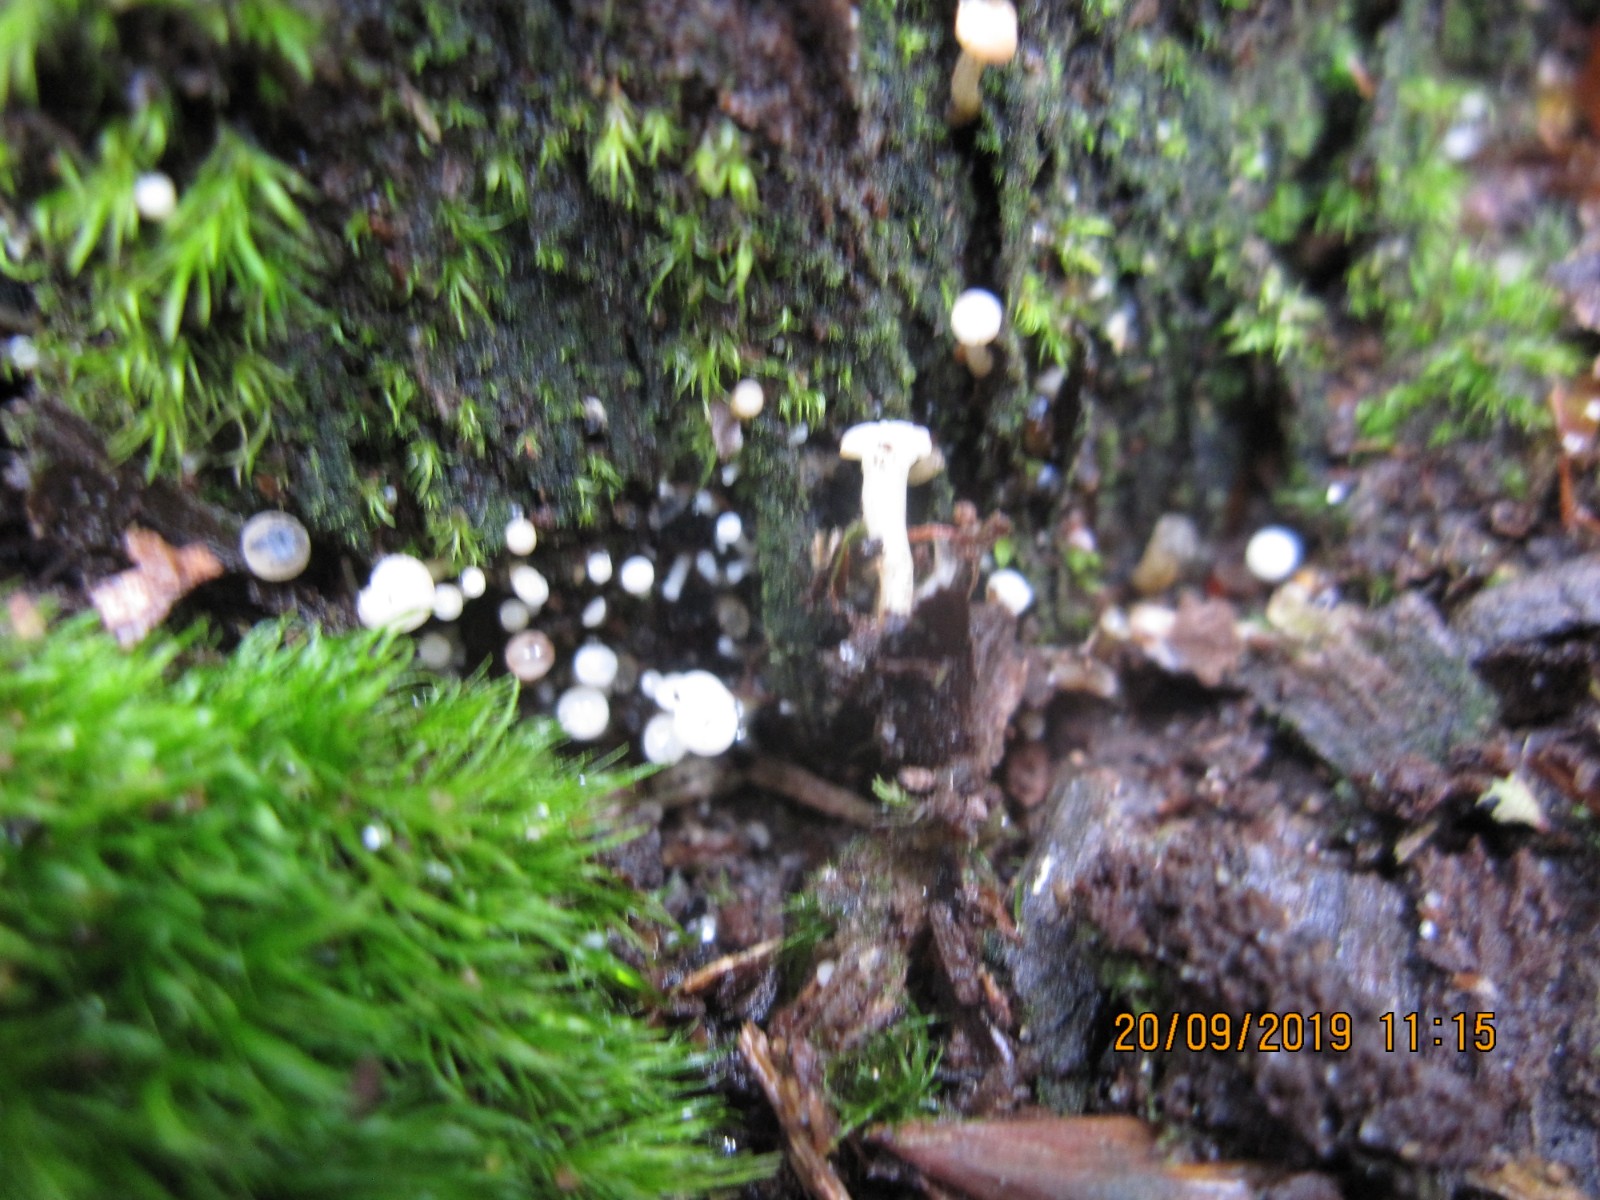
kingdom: Fungi
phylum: Ascomycota
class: Leotiomycetes
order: Helotiales
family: Tricladiaceae
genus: Cudoniella
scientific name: Cudoniella acicularis
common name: ege-dyndskive
